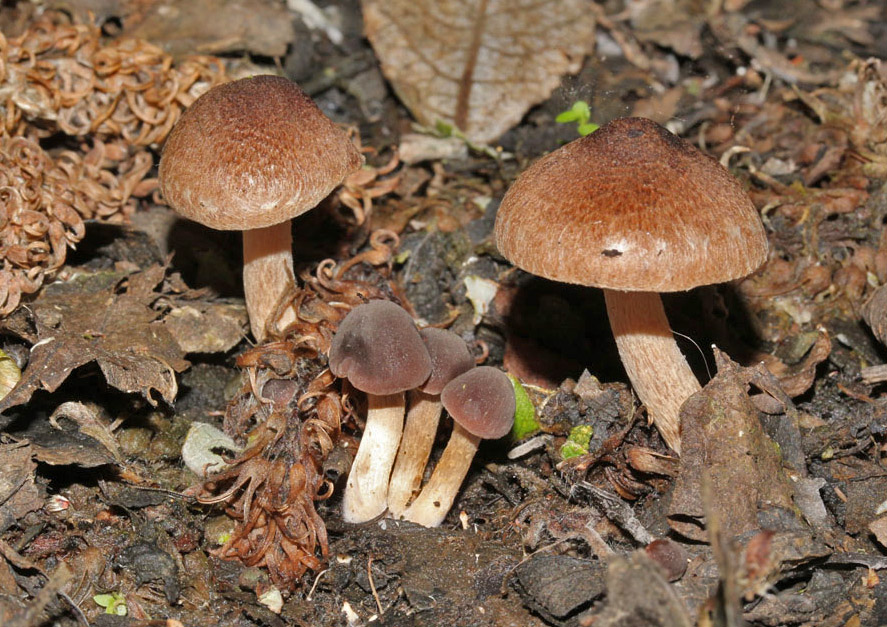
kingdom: Fungi
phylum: Basidiomycota
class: Agaricomycetes
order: Agaricales
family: Inocybaceae
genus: Inocybe
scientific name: Inocybe curvipes
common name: plæne-trævlhat
